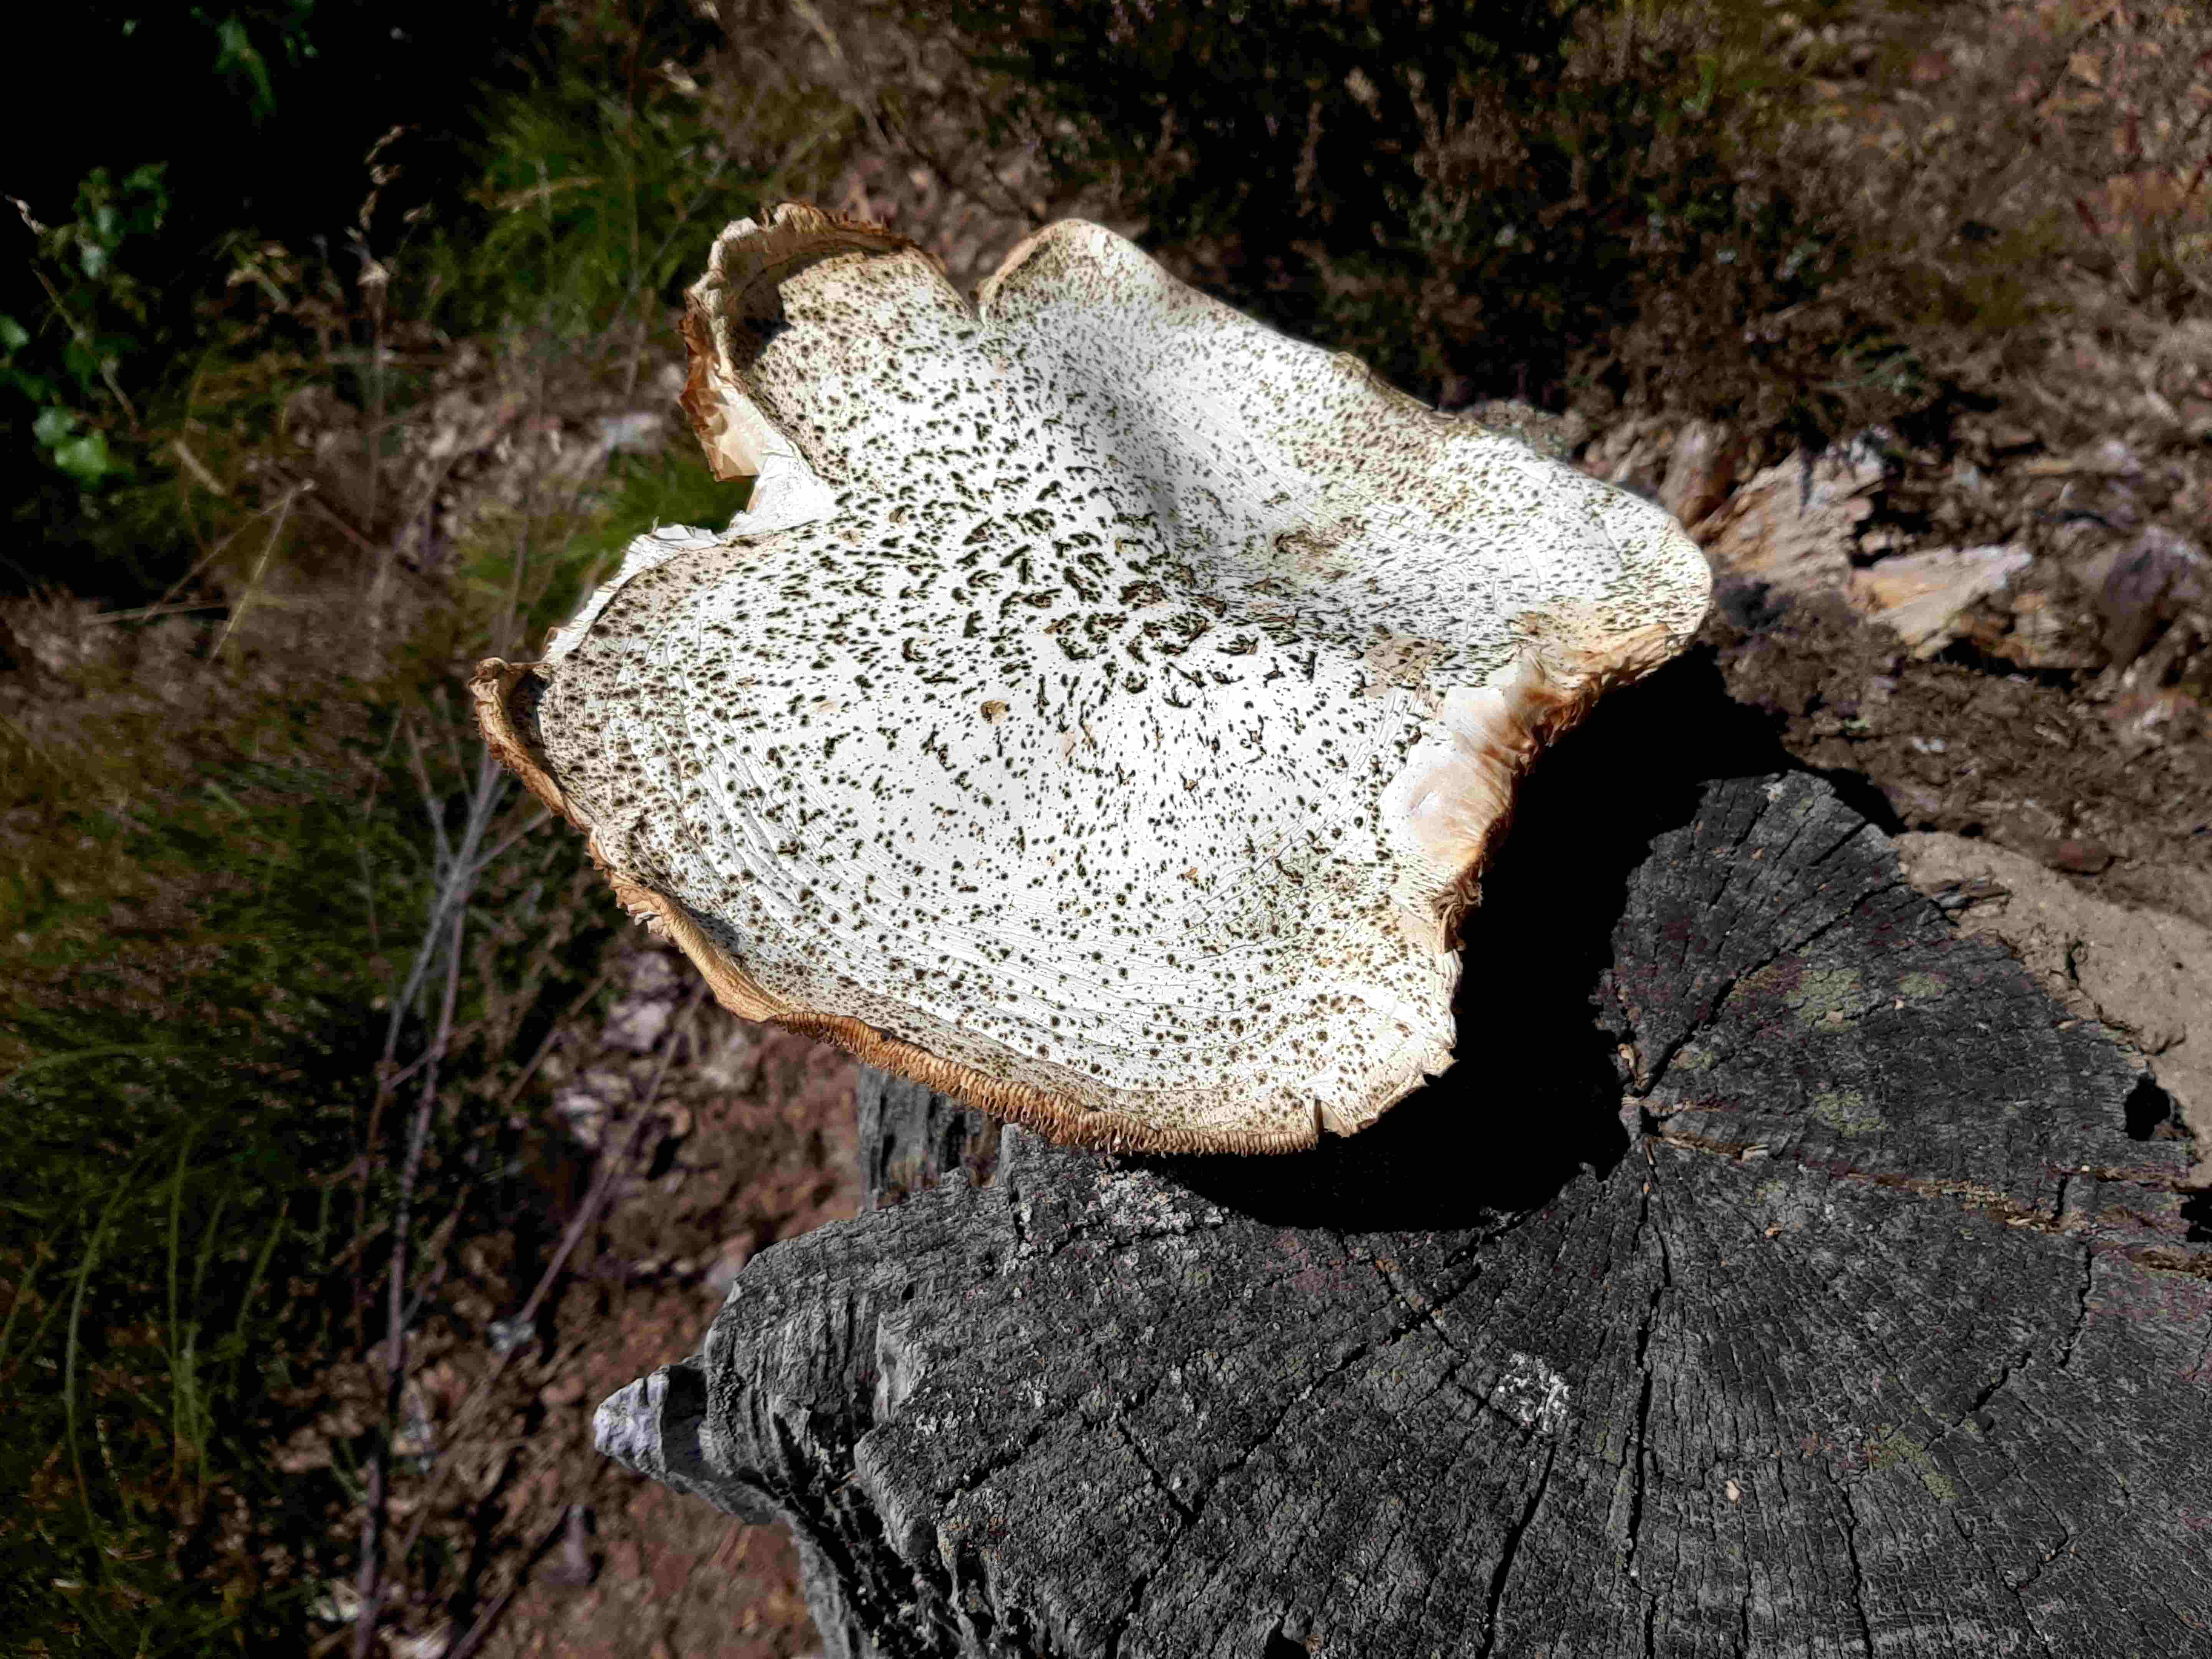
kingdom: Fungi
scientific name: Fungi
